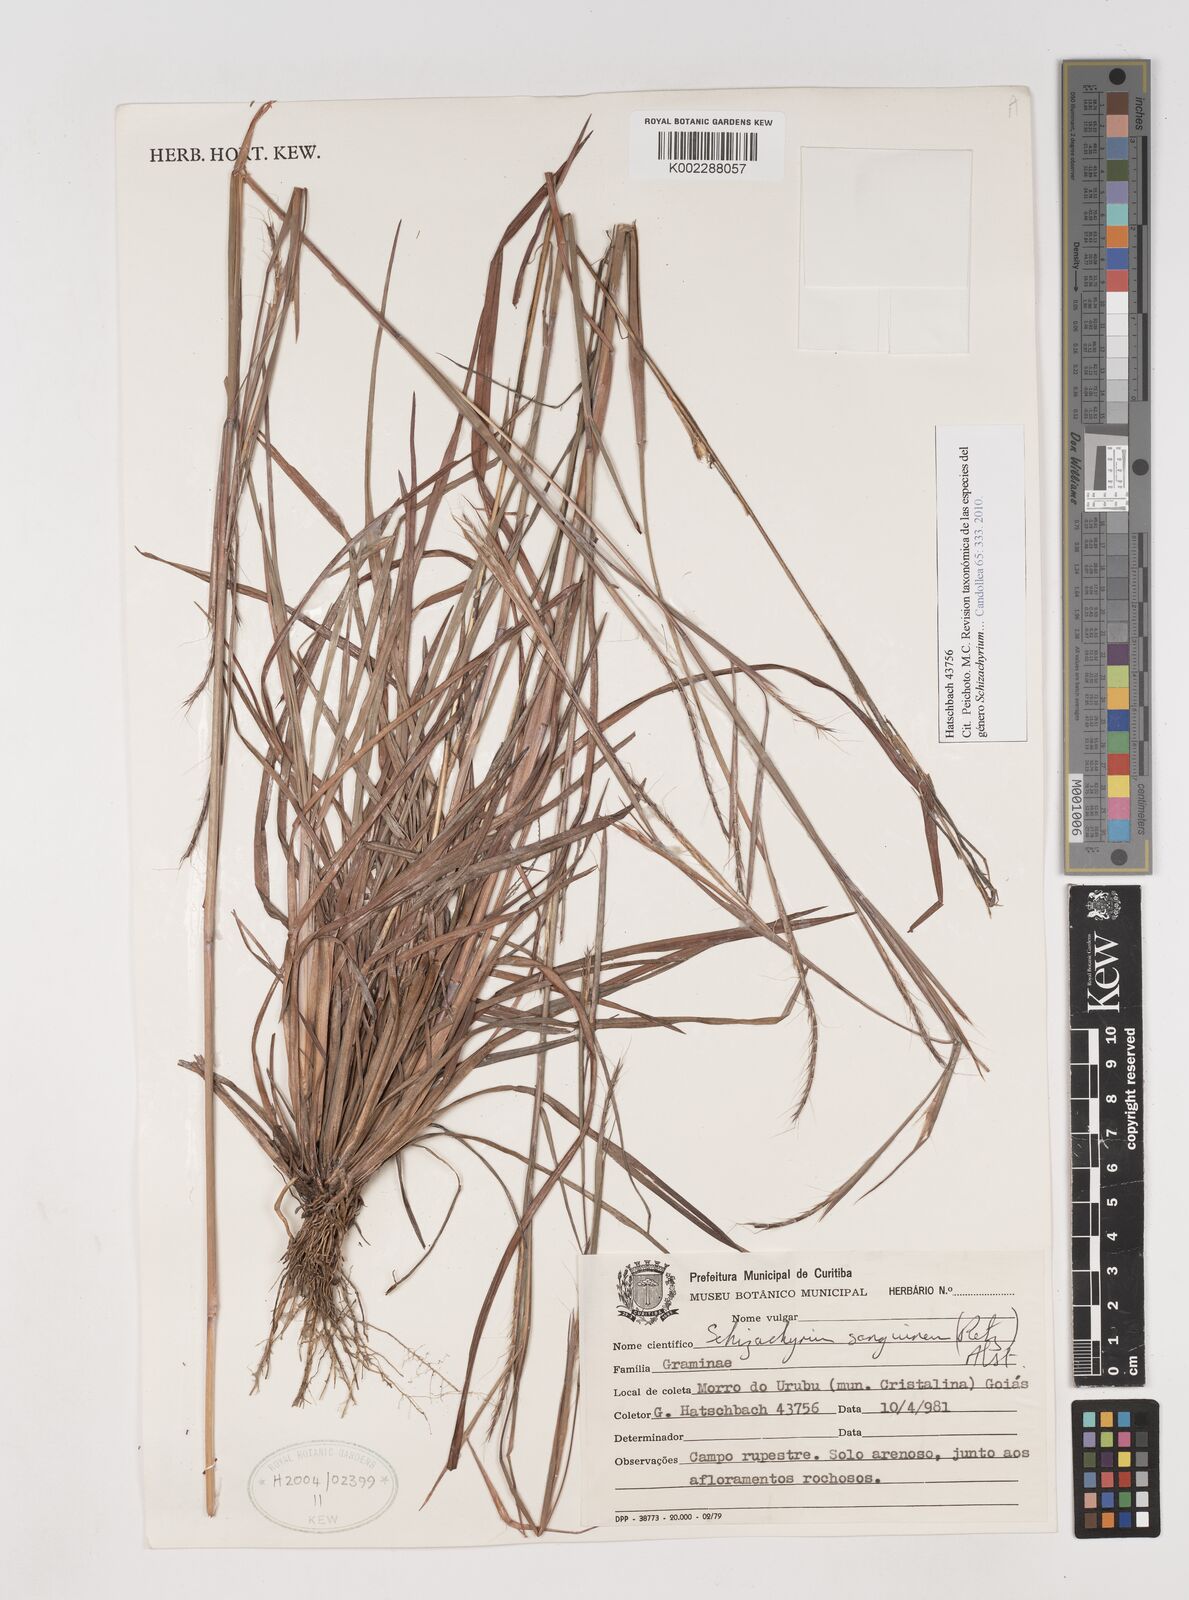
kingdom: Plantae
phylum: Tracheophyta
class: Liliopsida
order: Poales
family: Poaceae
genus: Schizachyrium
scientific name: Schizachyrium sanguineum
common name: Crimson bluestem
